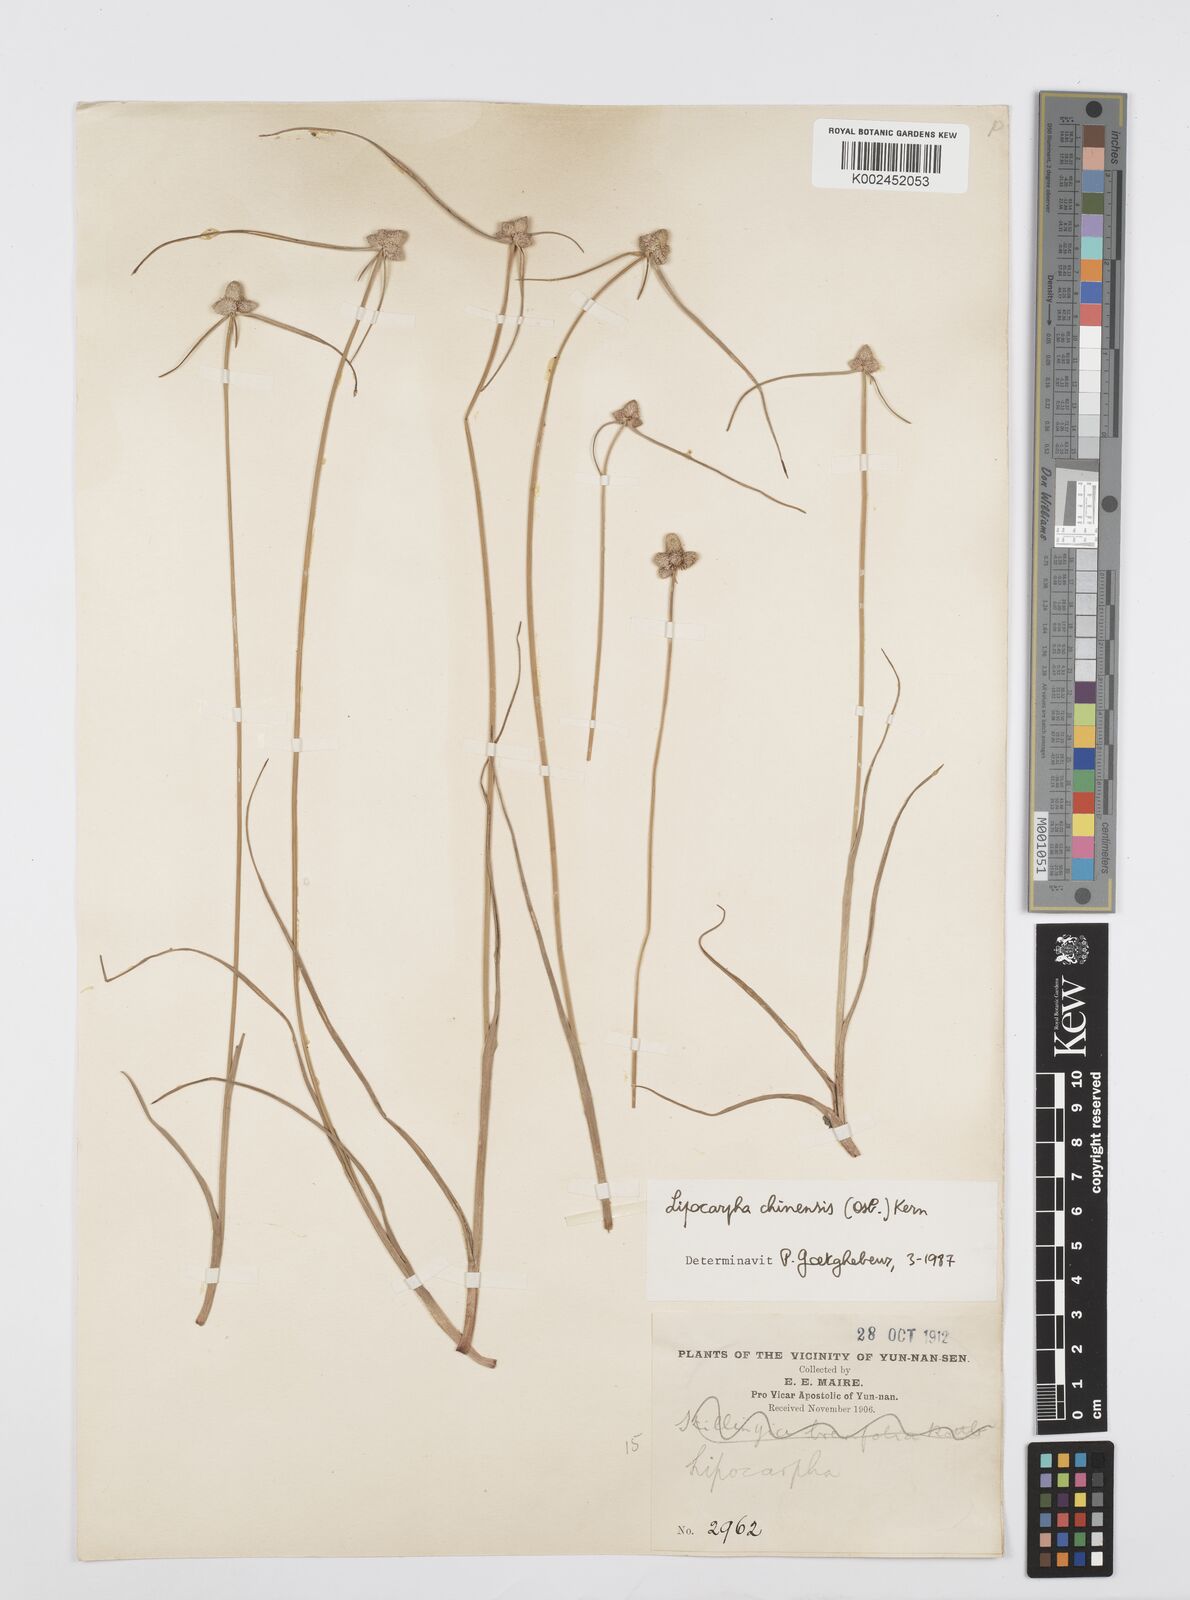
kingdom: Plantae
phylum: Tracheophyta
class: Liliopsida
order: Poales
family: Cyperaceae
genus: Cyperus
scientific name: Cyperus albescens
